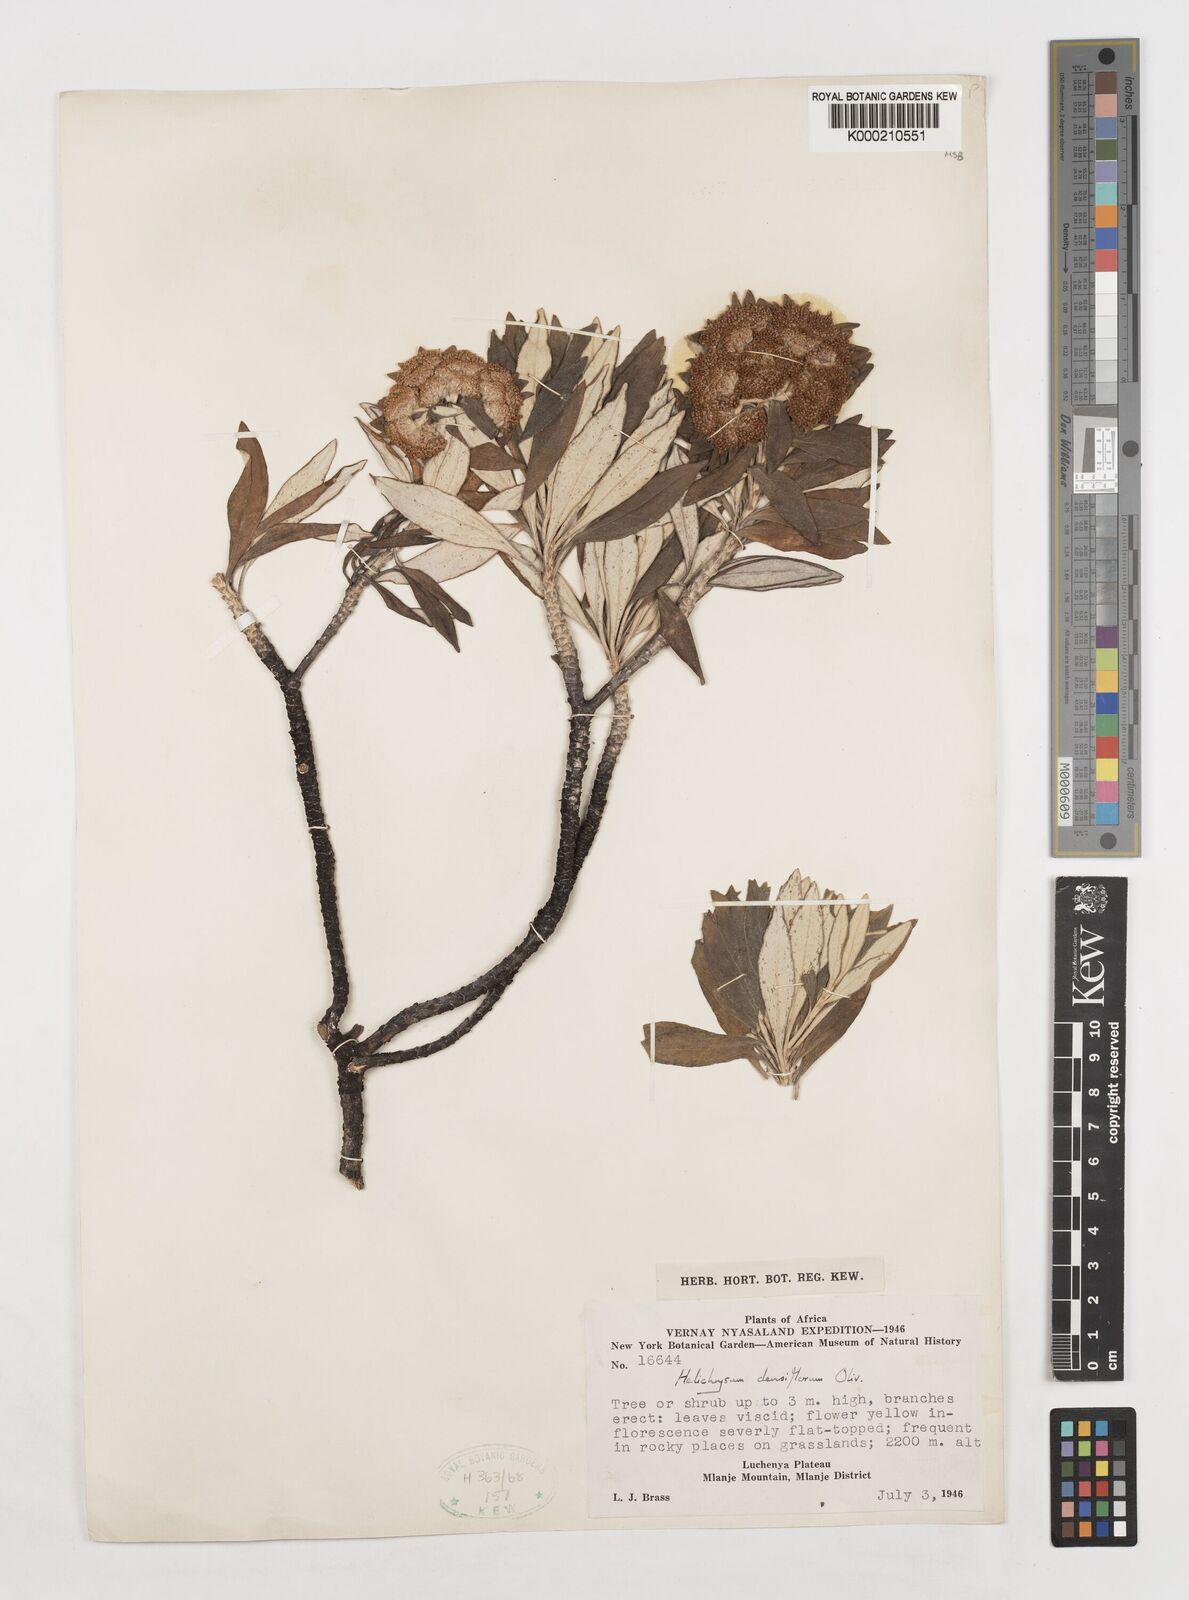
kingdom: Plantae
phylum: Tracheophyta
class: Magnoliopsida
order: Asterales
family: Asteraceae
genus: Helichrysum
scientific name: Helichrysum densiflorum
